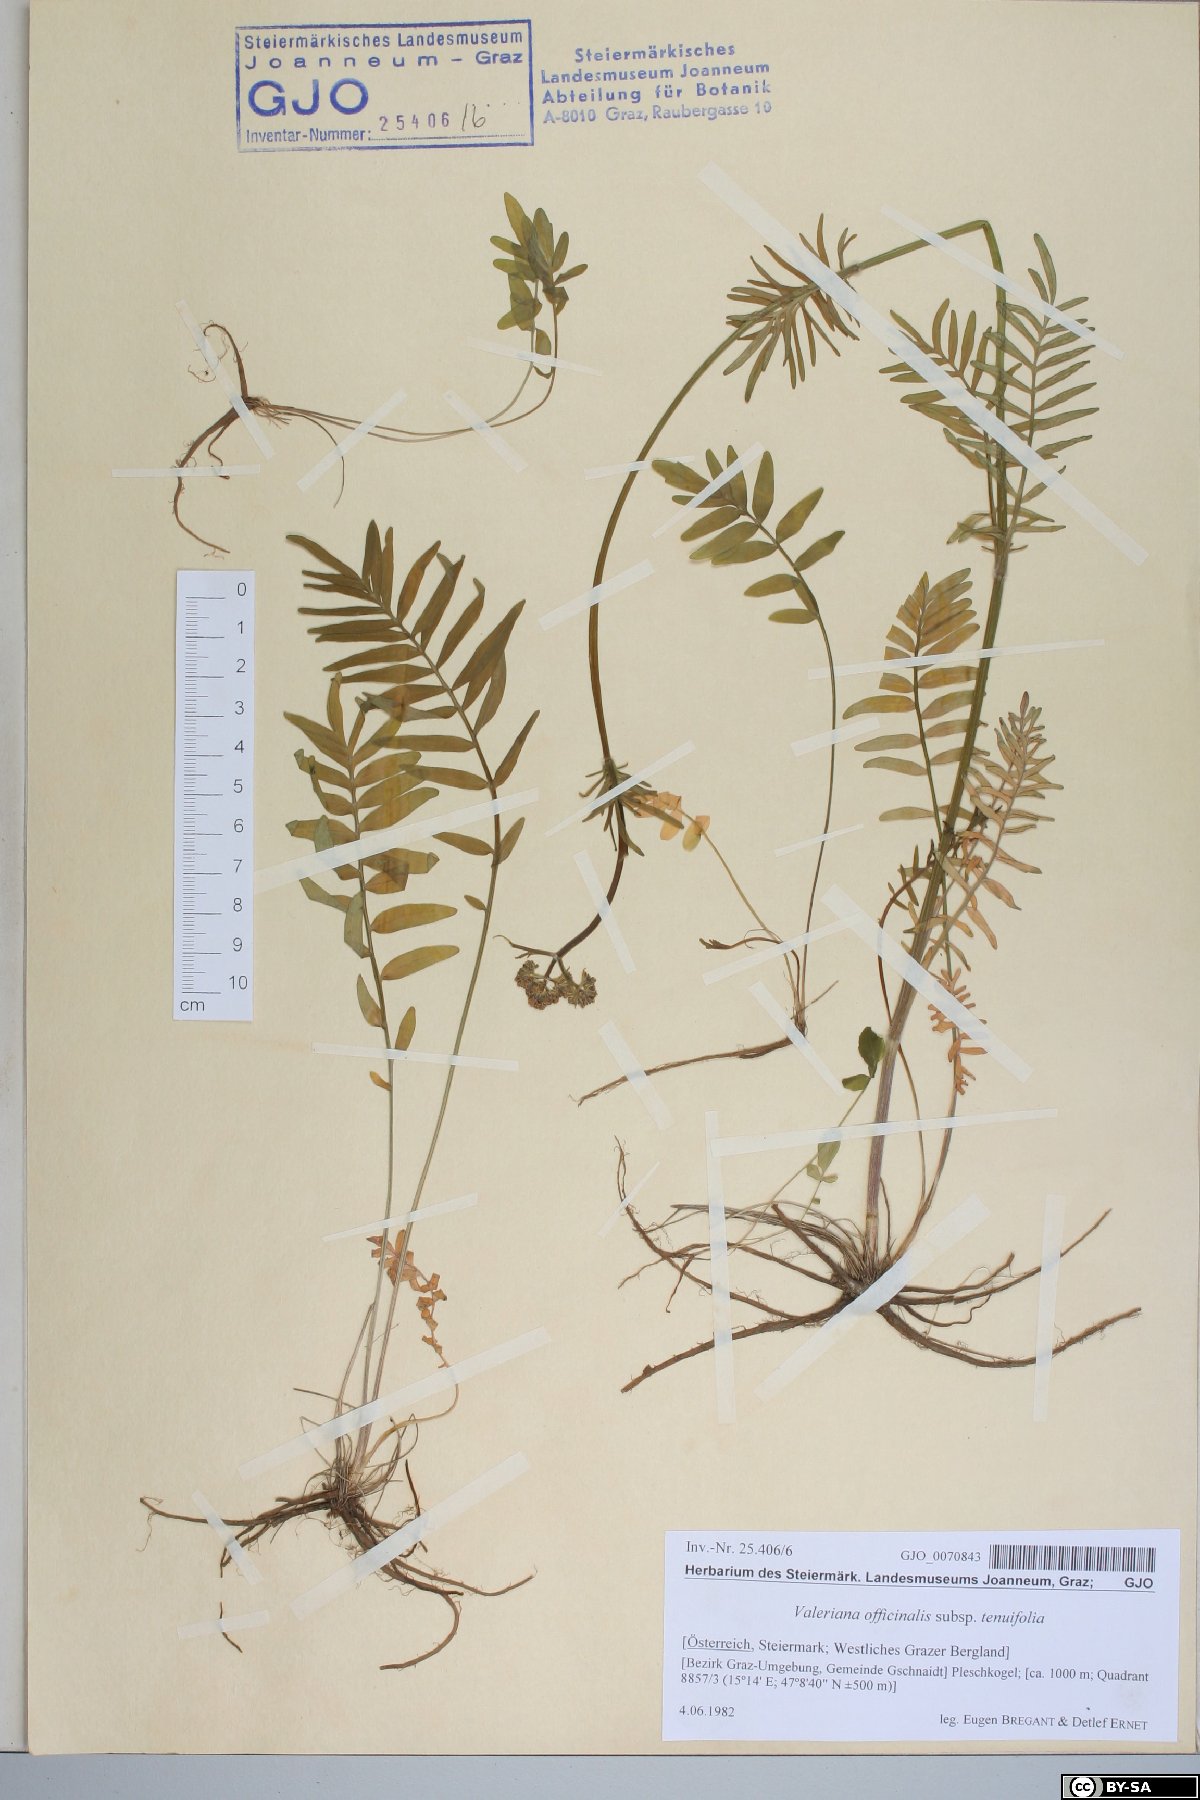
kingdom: Plantae
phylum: Tracheophyta
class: Magnoliopsida
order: Dipsacales
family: Caprifoliaceae
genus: Valeriana
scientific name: Valeriana officinalis
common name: Common valerian
